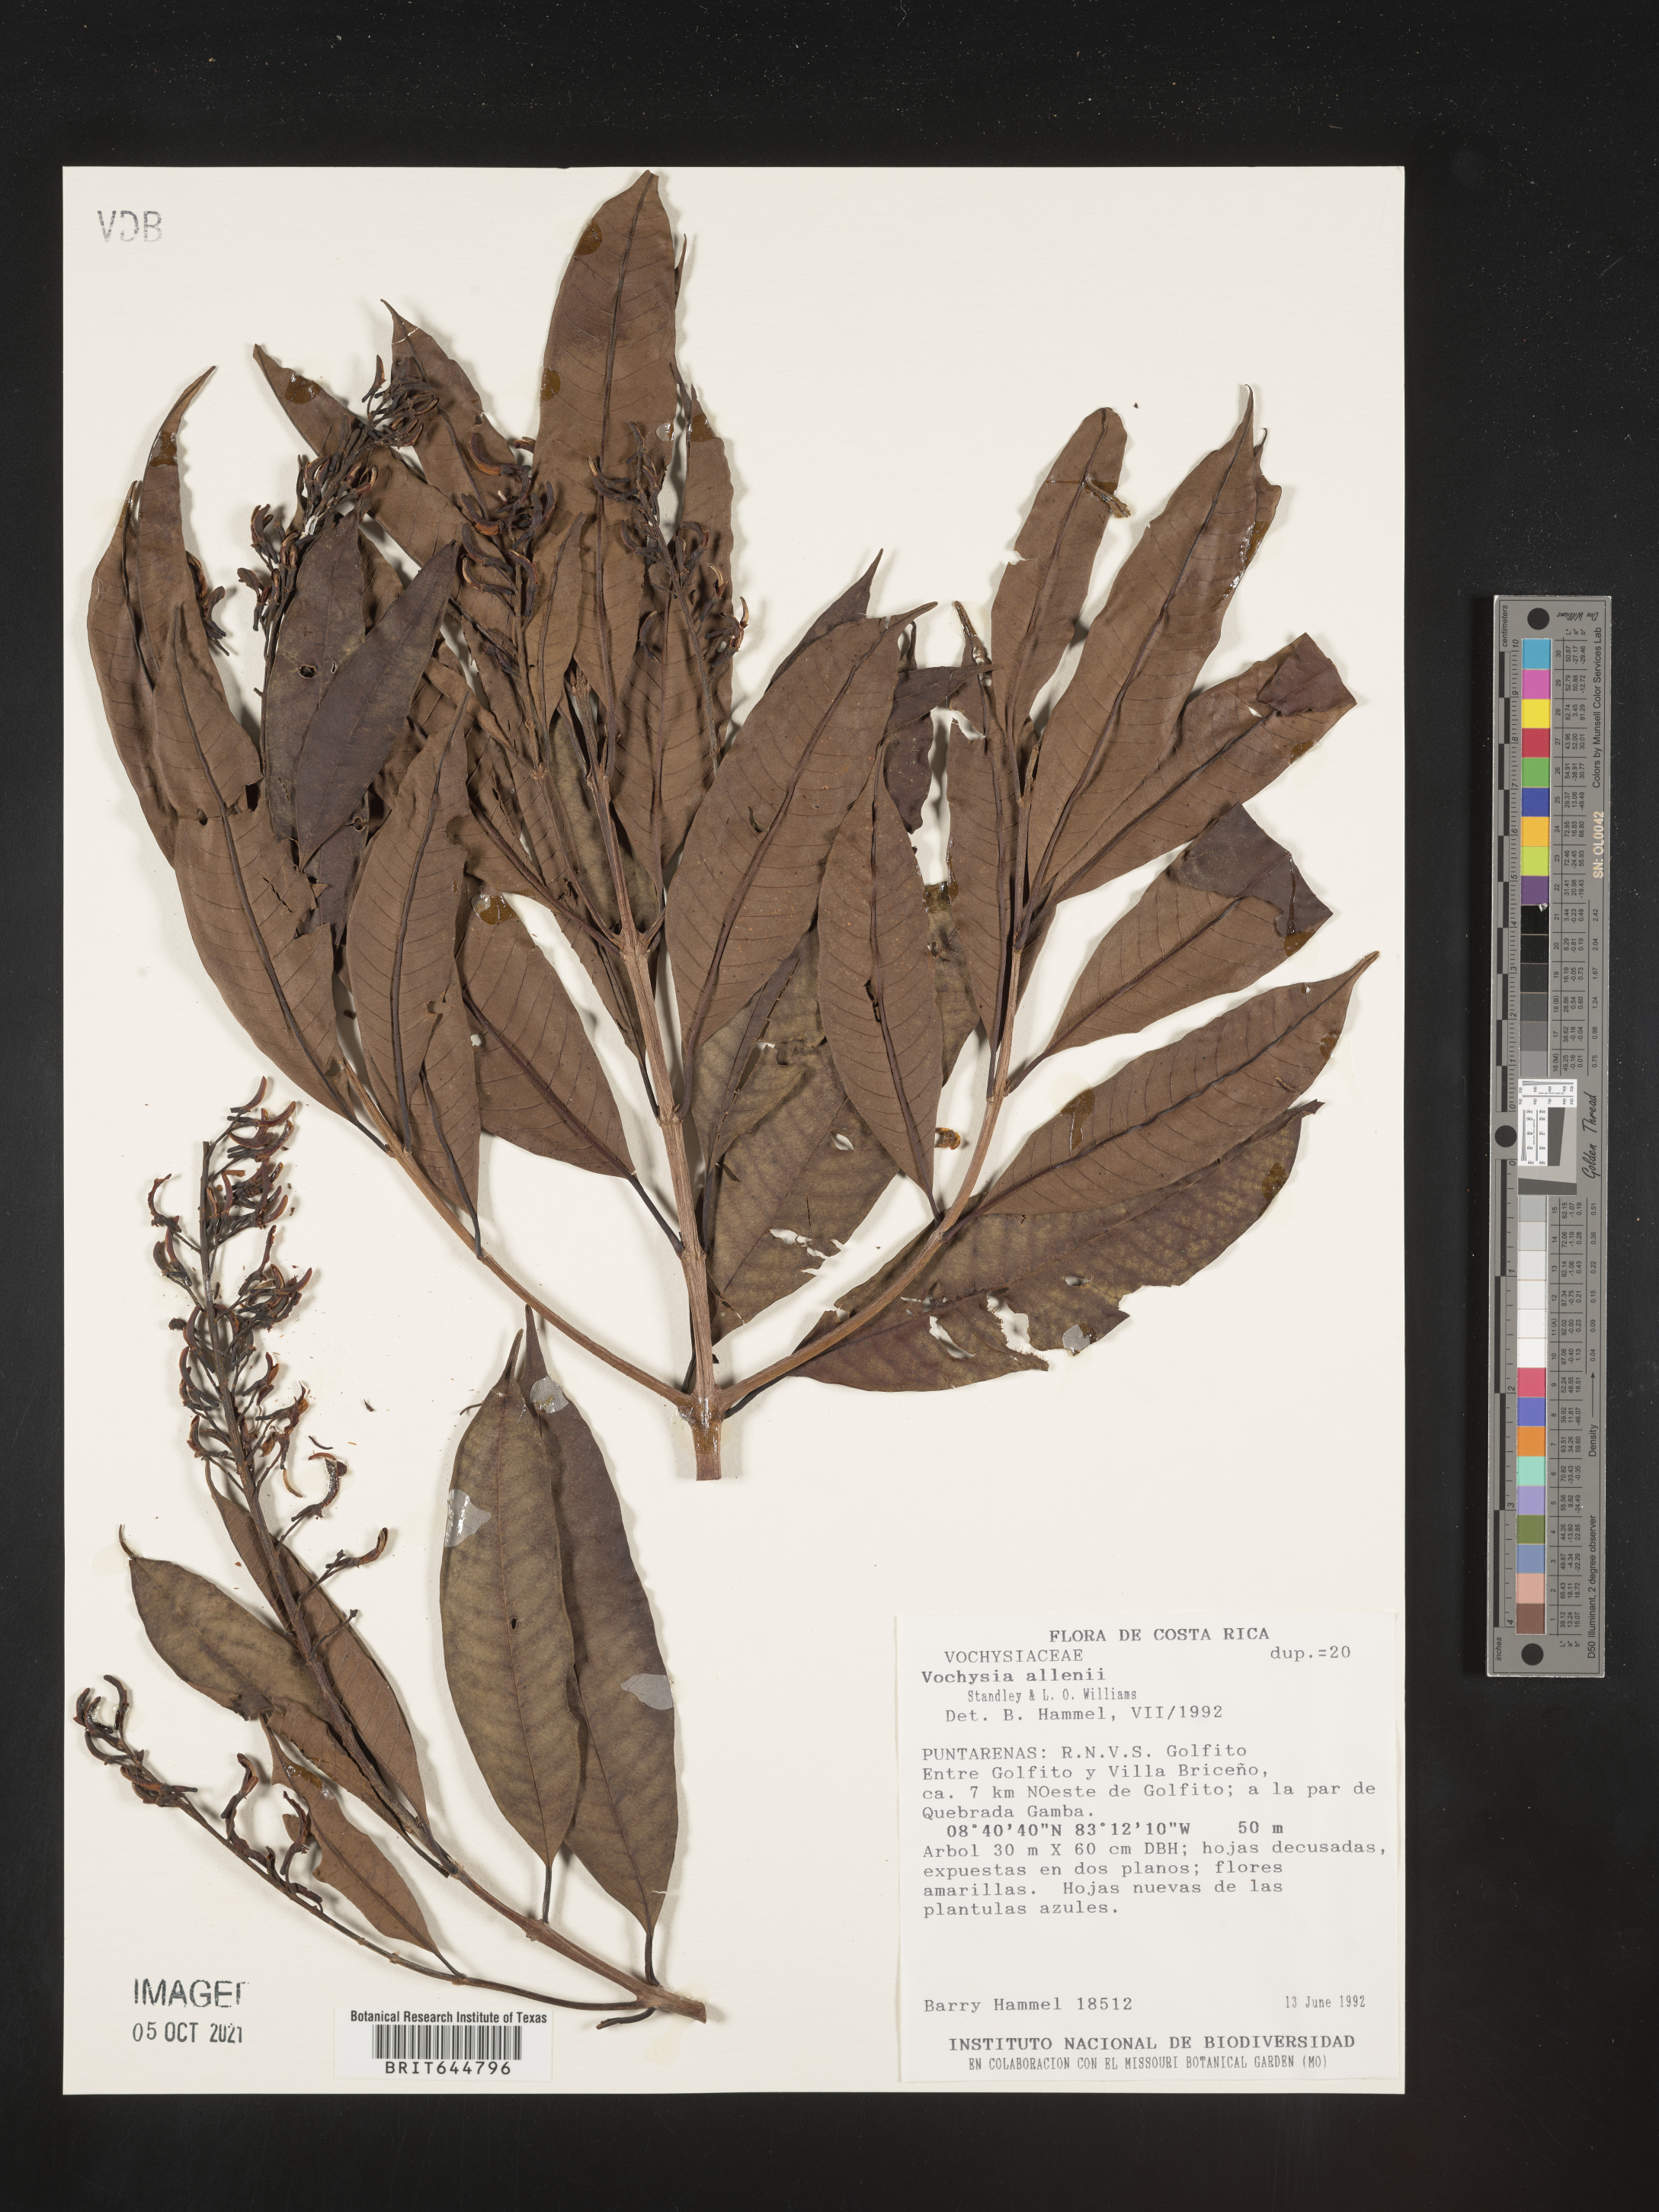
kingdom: Plantae
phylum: Tracheophyta
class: Magnoliopsida
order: Myrtales
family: Vochysiaceae
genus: Vochysia
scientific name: Vochysia
